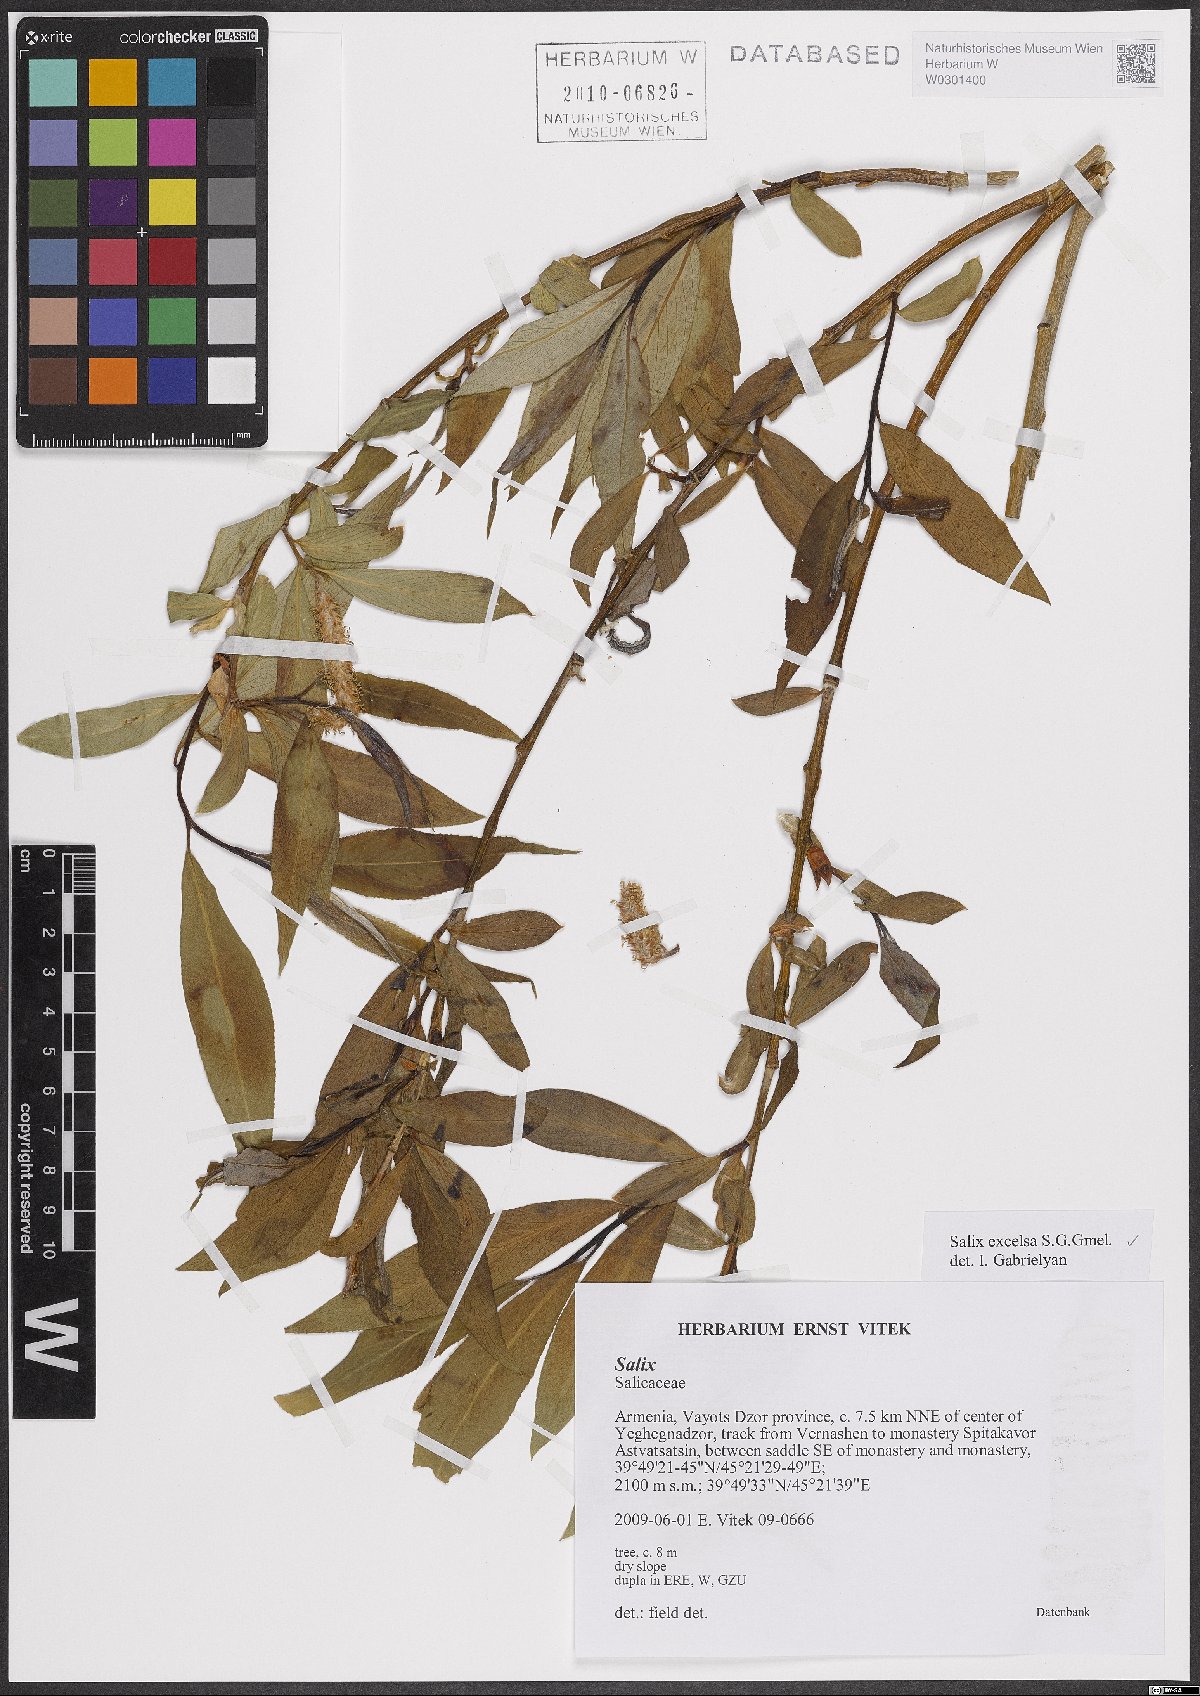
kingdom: Plantae
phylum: Tracheophyta
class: Magnoliopsida
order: Malpighiales
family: Salicaceae
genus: Salix
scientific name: Salix excelsa
